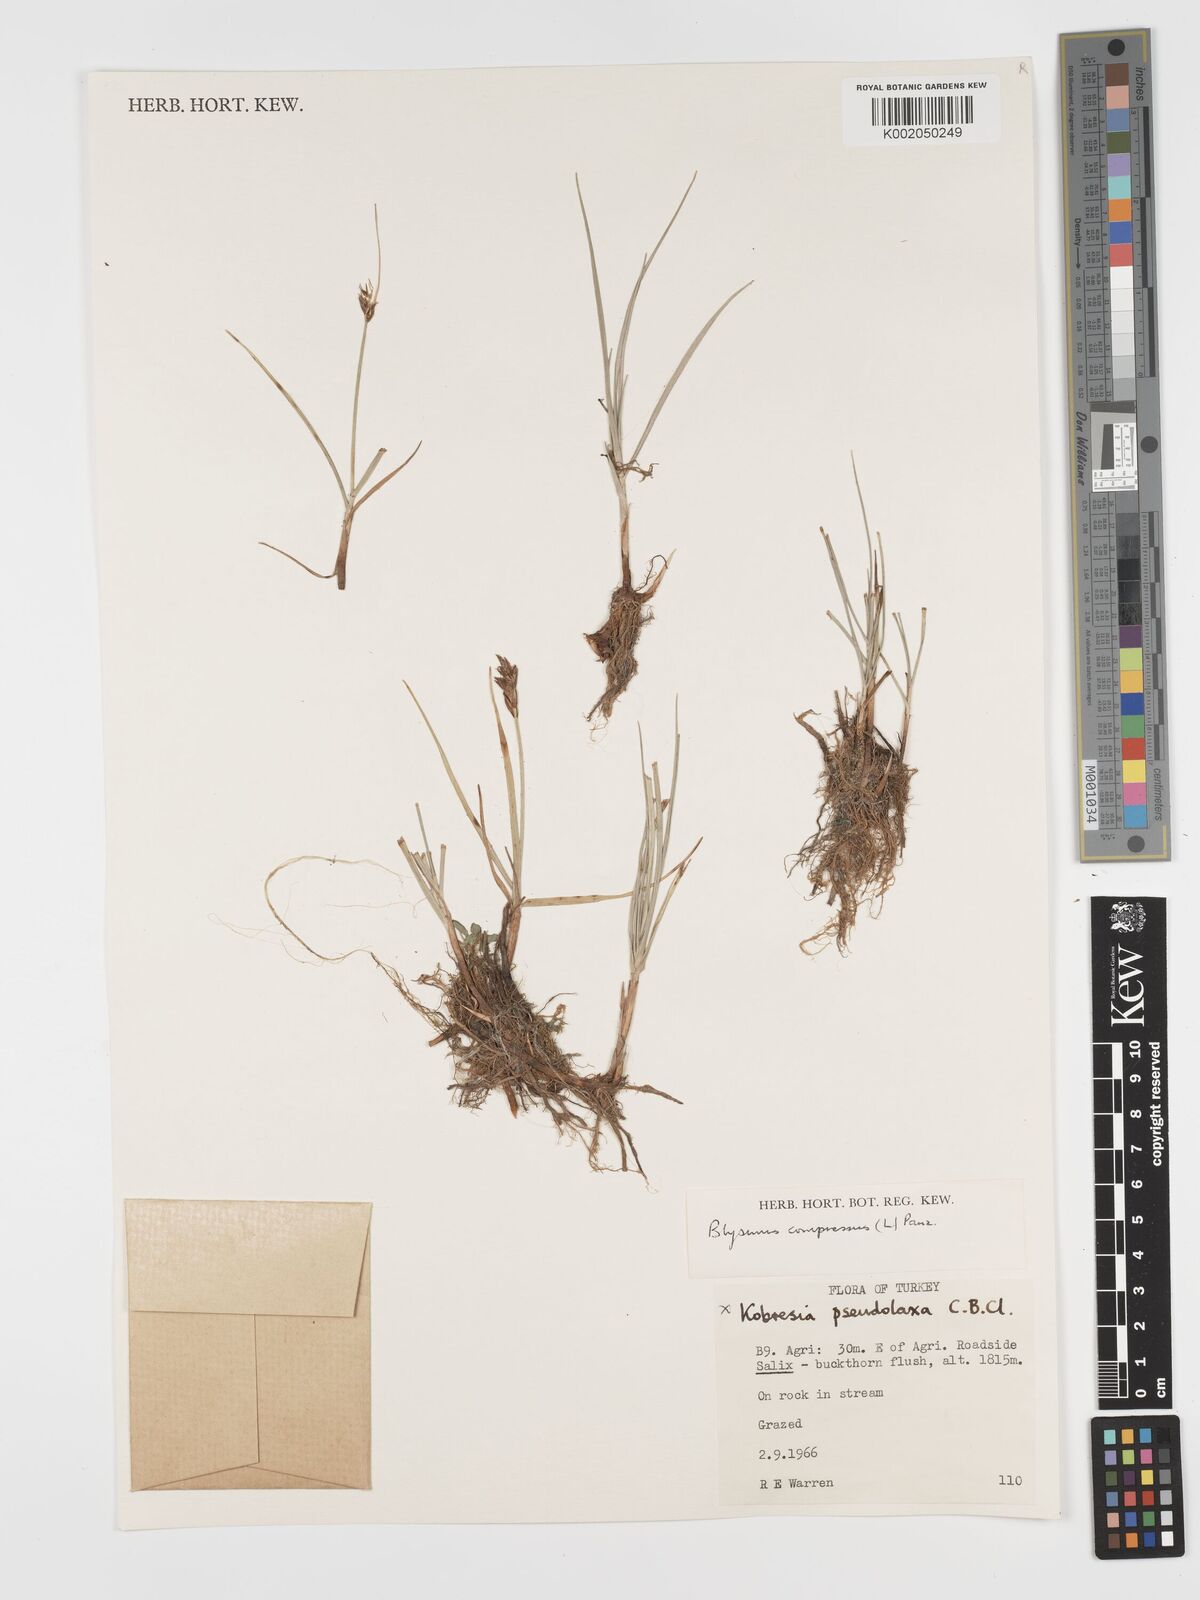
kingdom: Plantae
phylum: Tracheophyta
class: Liliopsida
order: Poales
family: Cyperaceae
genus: Blysmus
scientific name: Blysmus compressus
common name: Flat-sedge
